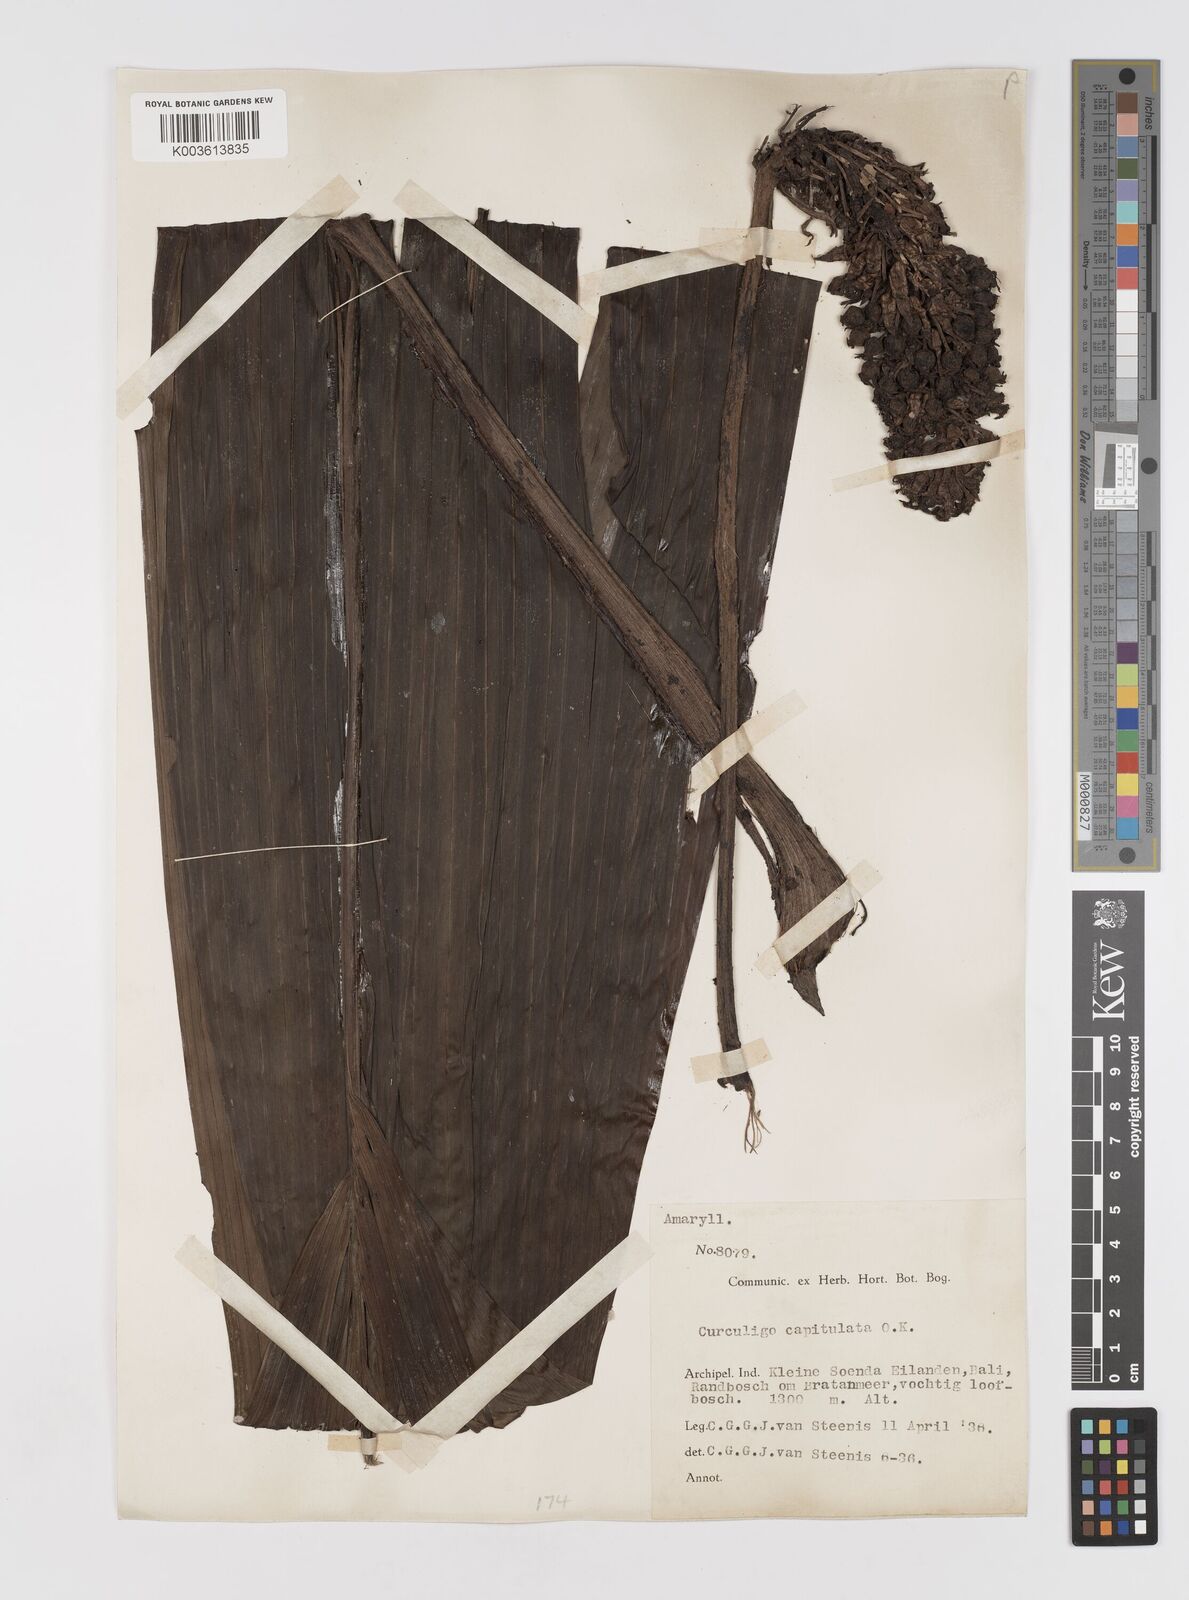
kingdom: Plantae
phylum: Tracheophyta
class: Liliopsida
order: Asparagales
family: Hypoxidaceae
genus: Curculigo
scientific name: Curculigo capitulata
